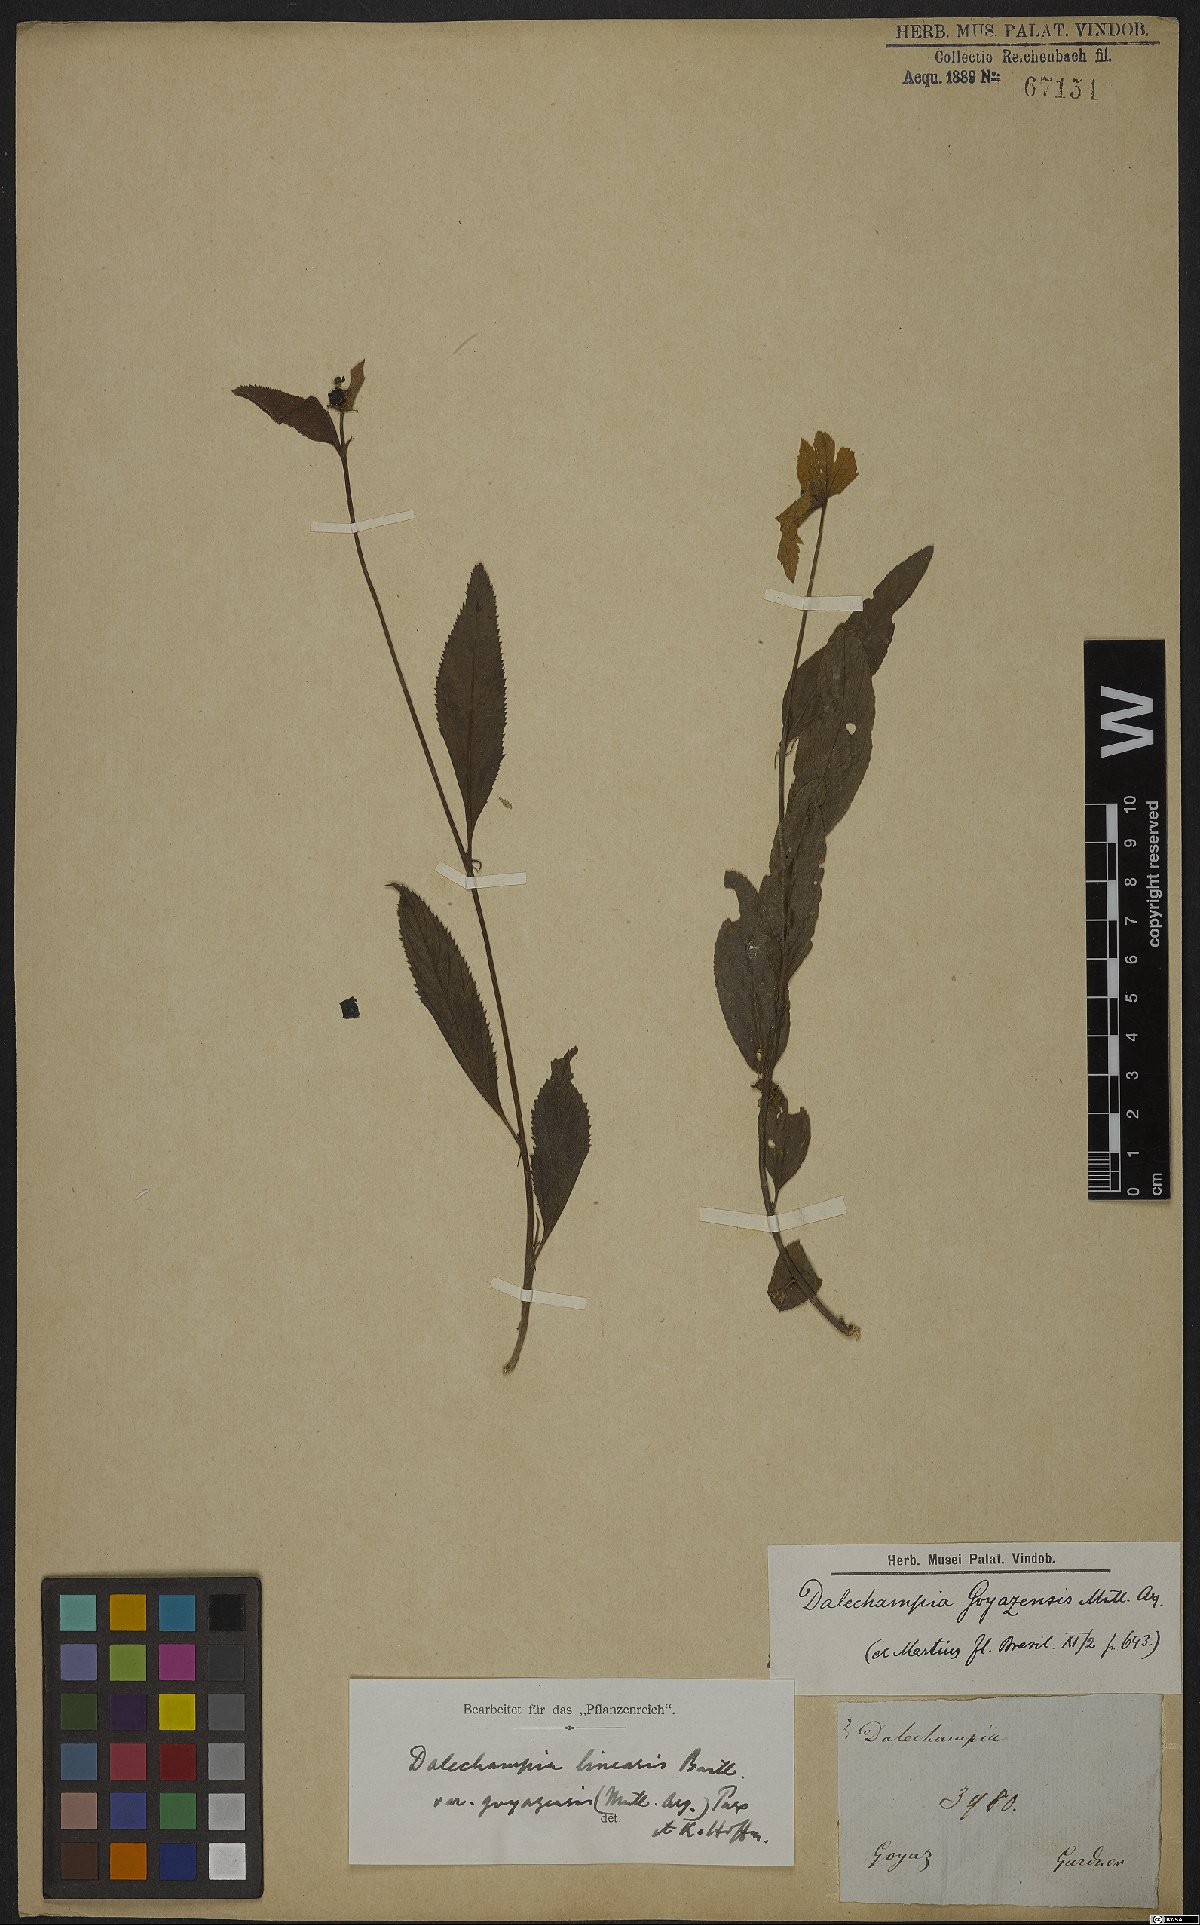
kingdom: Plantae
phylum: Tracheophyta
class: Magnoliopsida
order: Malpighiales
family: Euphorbiaceae
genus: Dalechampia
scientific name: Dalechampia linearis
